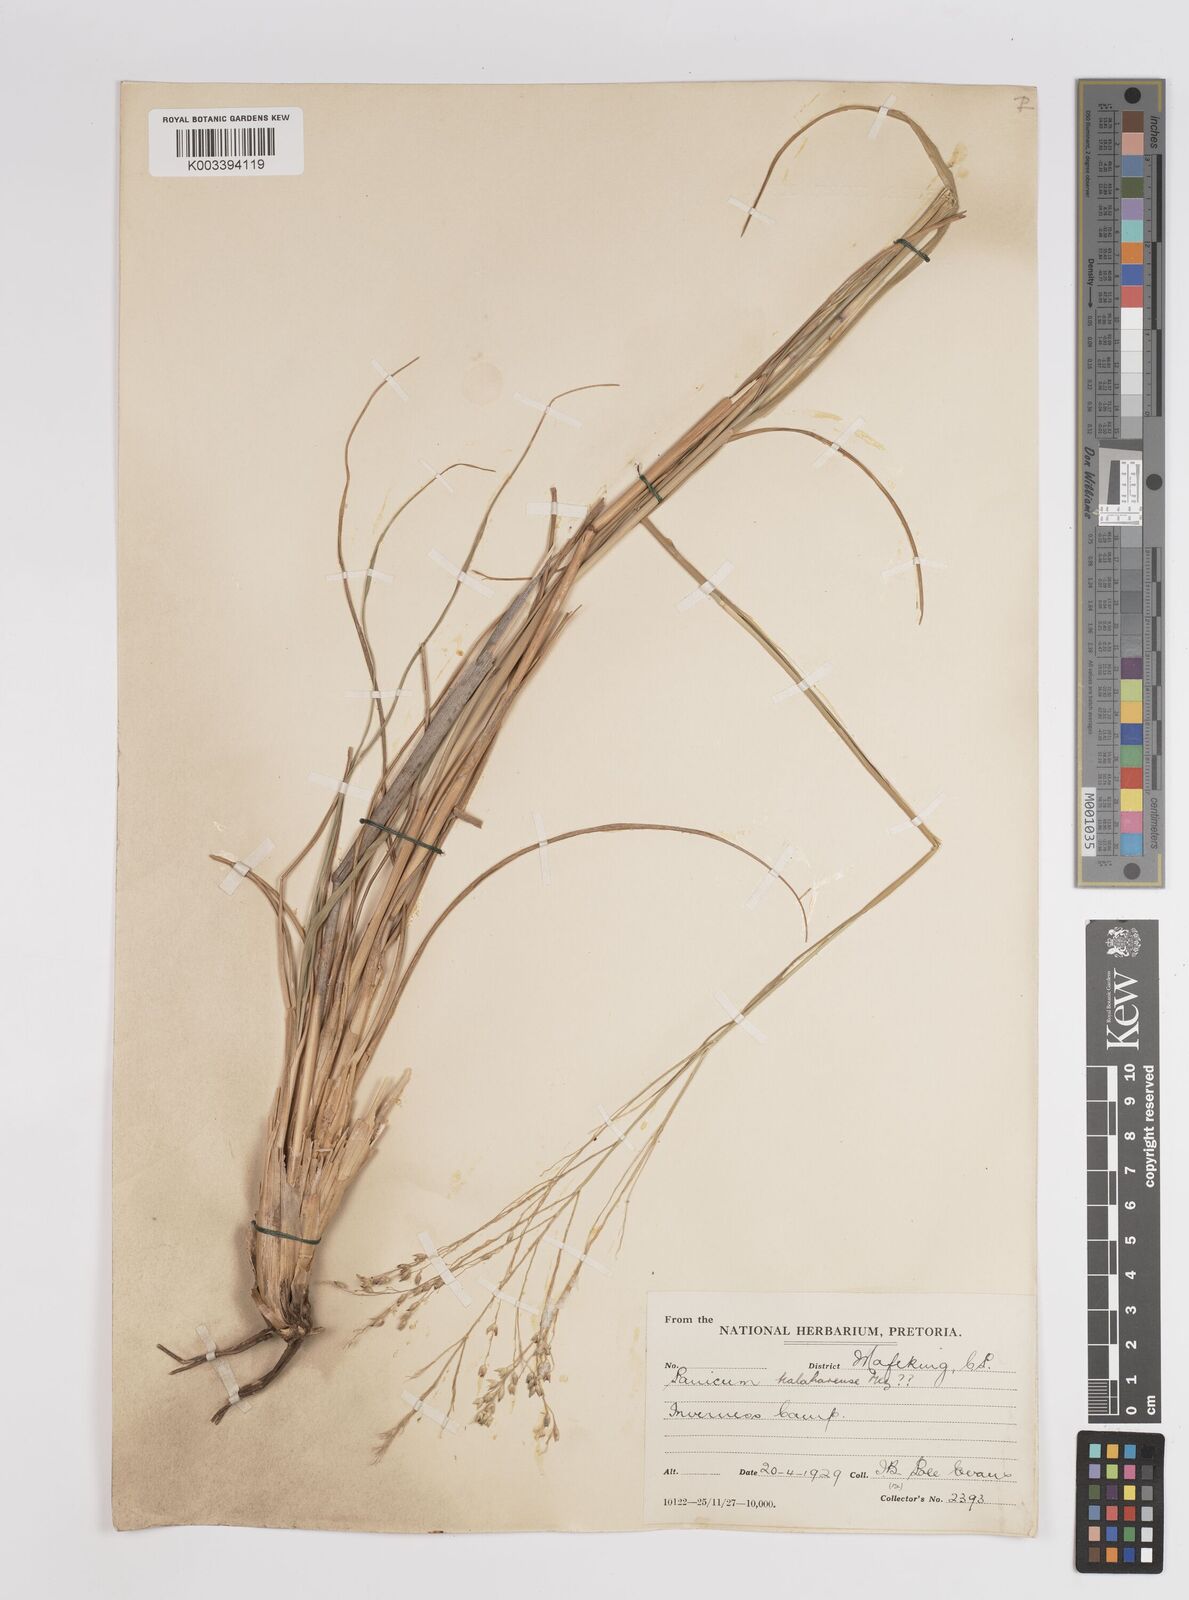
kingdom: Plantae
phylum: Tracheophyta
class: Liliopsida
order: Poales
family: Poaceae
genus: Panicum
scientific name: Panicum kalaharense
